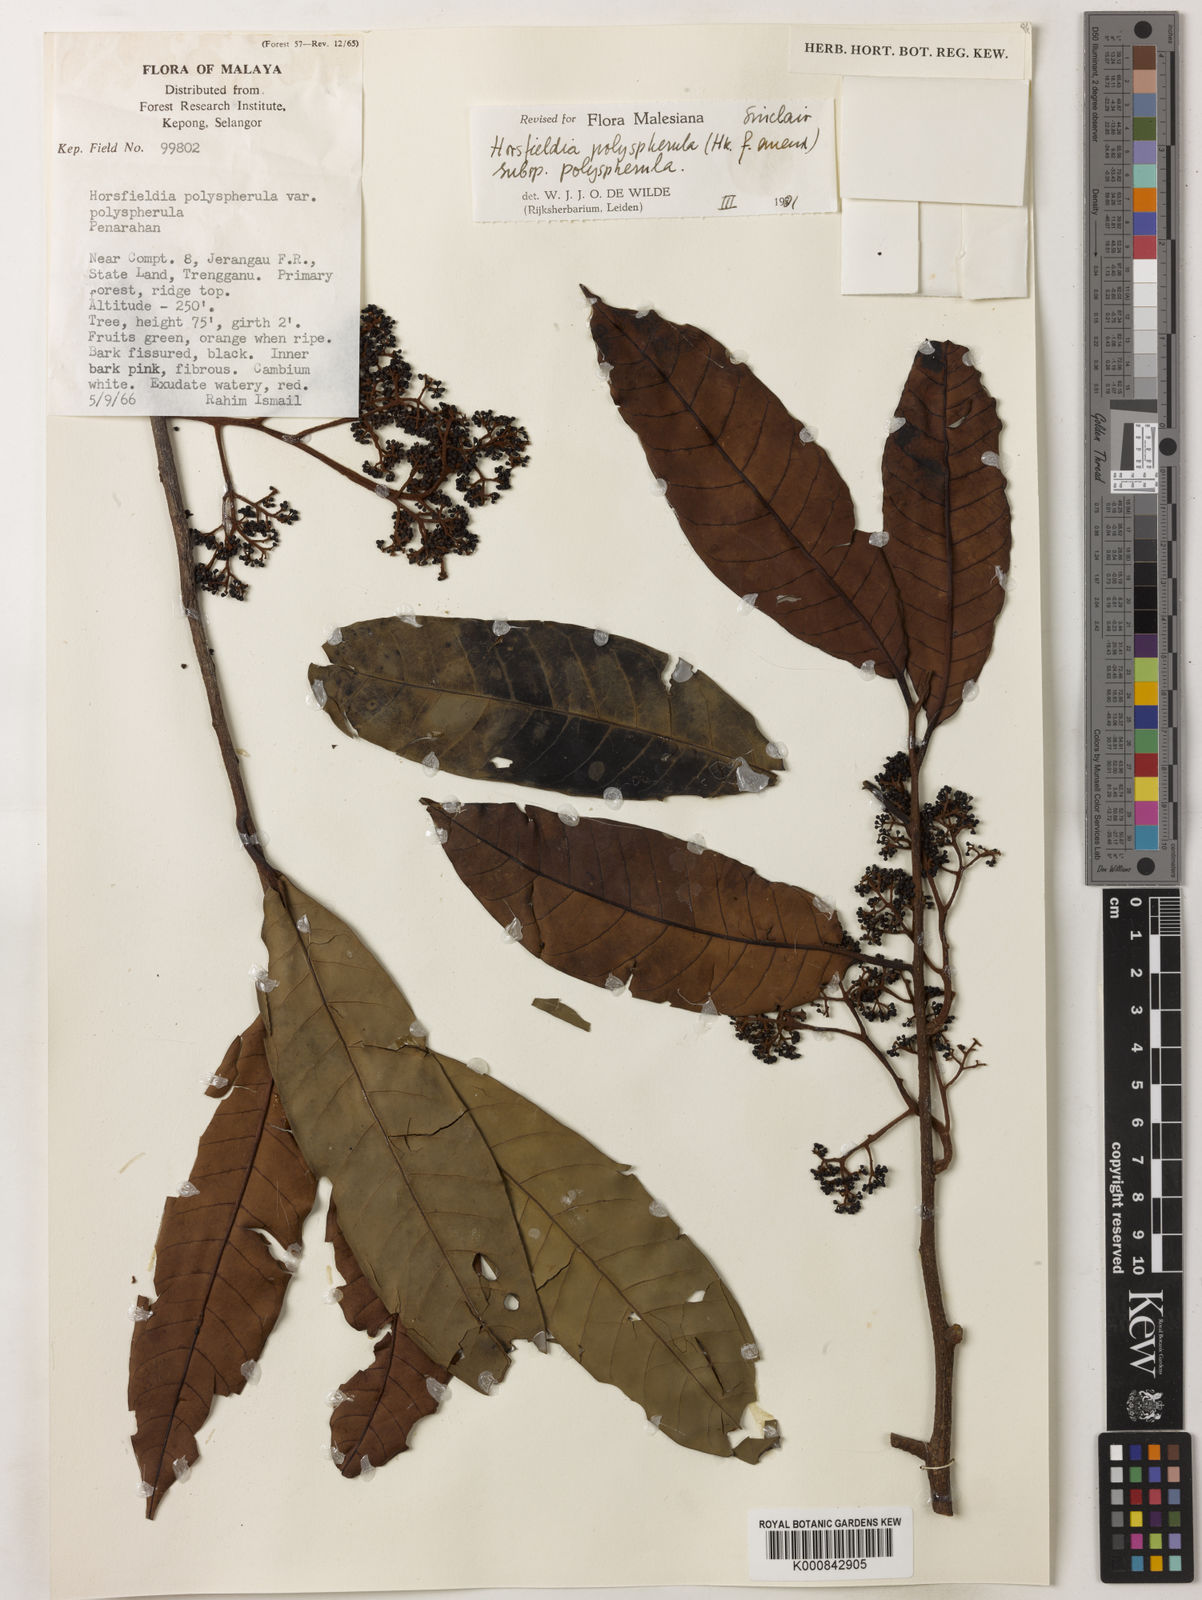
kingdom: Plantae
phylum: Tracheophyta
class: Magnoliopsida
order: Magnoliales
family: Myristicaceae
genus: Horsfieldia
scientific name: Horsfieldia
